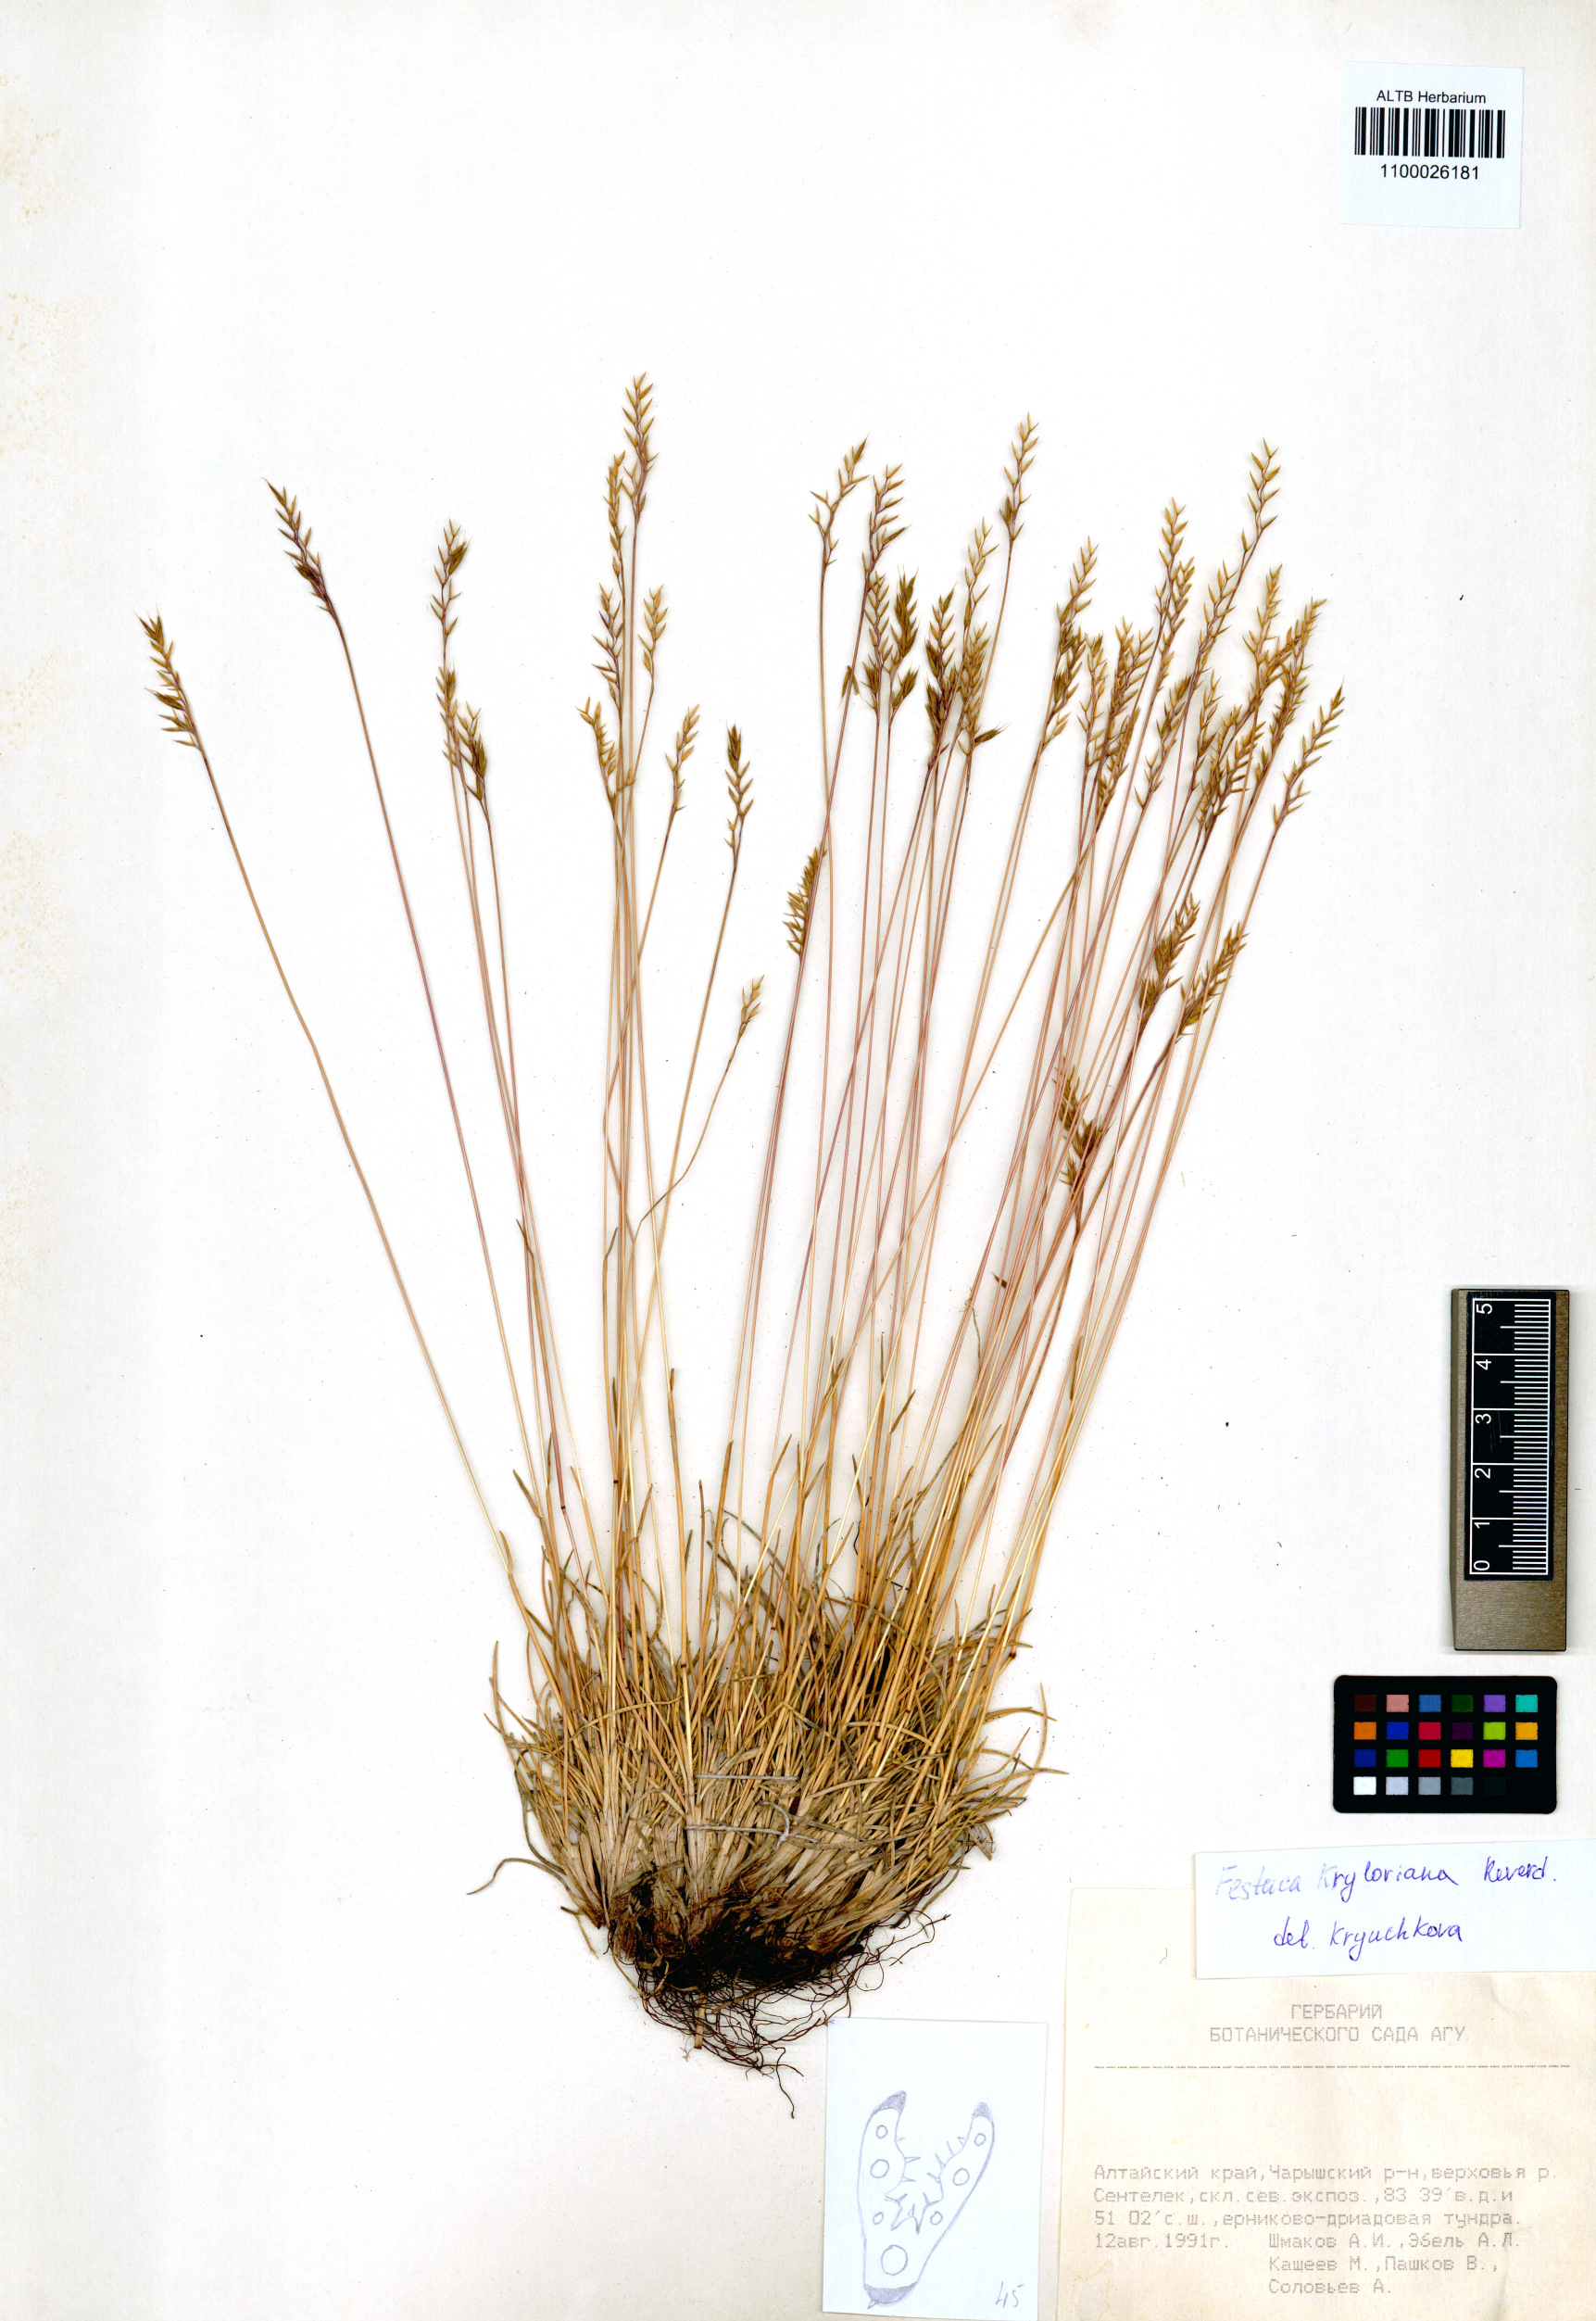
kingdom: Plantae
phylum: Tracheophyta
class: Liliopsida
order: Poales
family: Poaceae
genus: Festuca
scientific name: Festuca kryloviana
